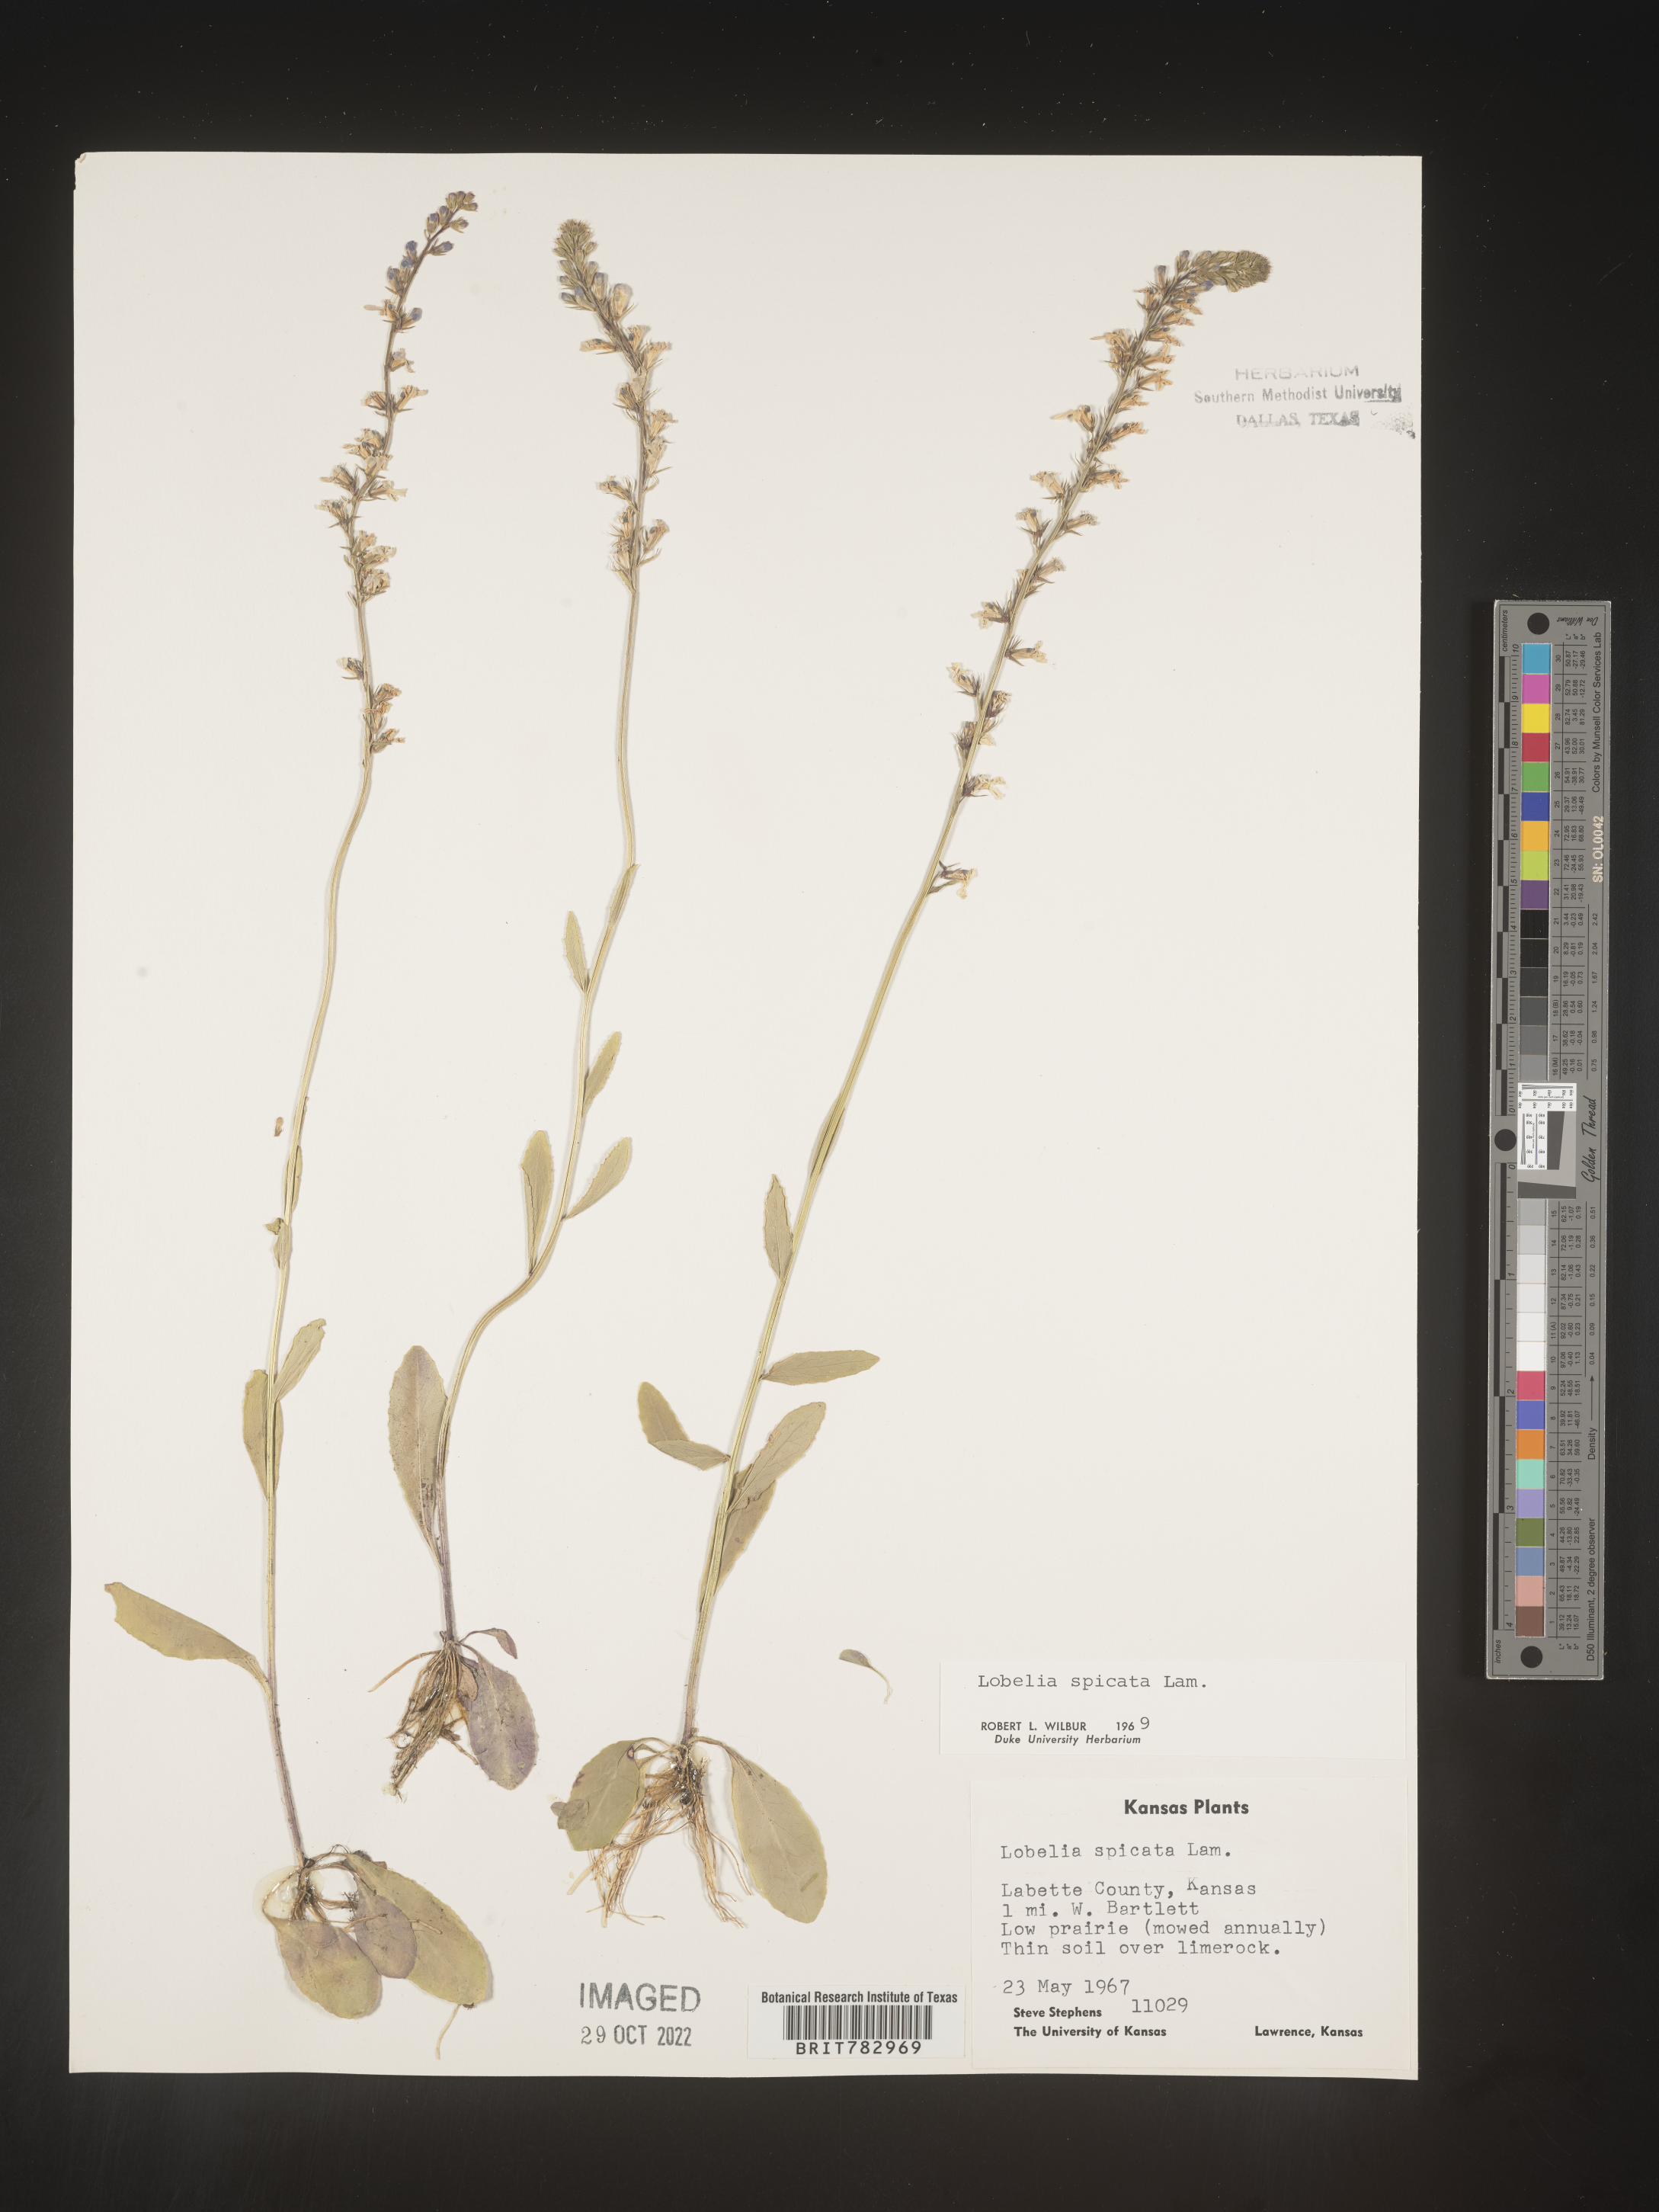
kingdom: Plantae
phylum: Tracheophyta
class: Magnoliopsida
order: Asterales
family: Campanulaceae
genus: Lobelia
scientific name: Lobelia spicata
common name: Pale-spike lobelia
